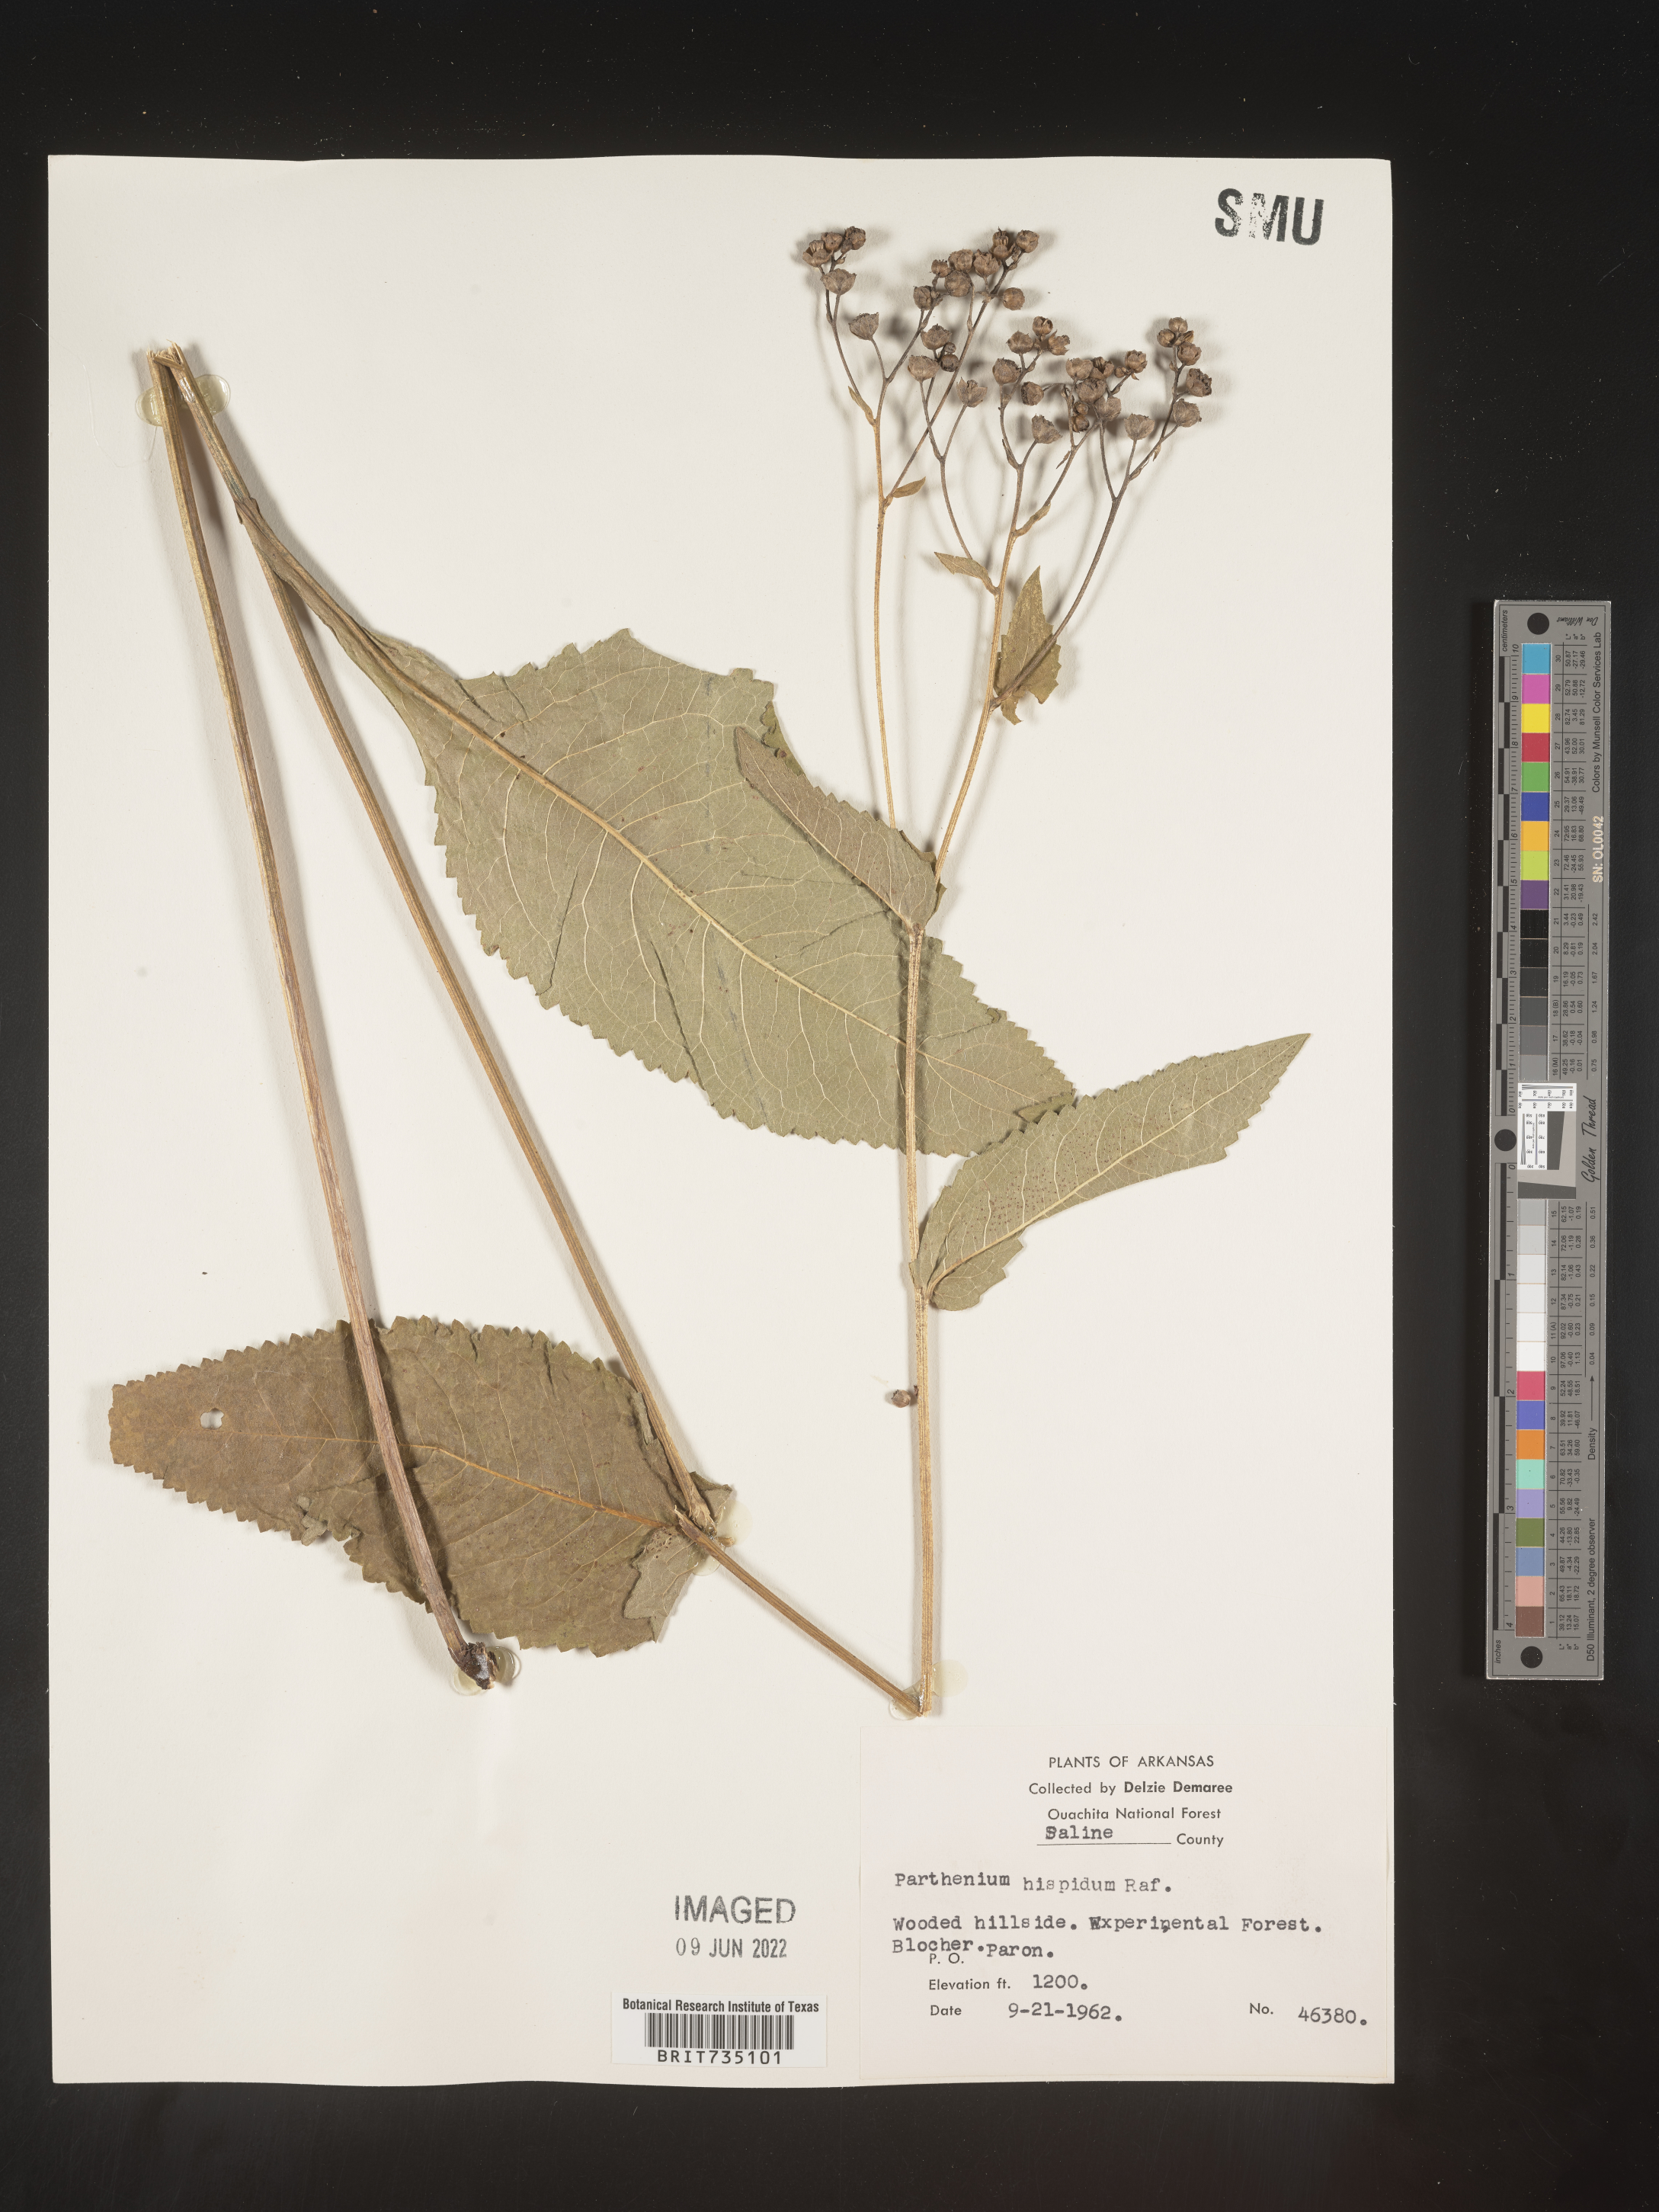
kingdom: Plantae
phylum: Tracheophyta
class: Magnoliopsida
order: Asterales
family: Asteraceae
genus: Parthenium
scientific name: Parthenium integrifolium
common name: American feverfew
